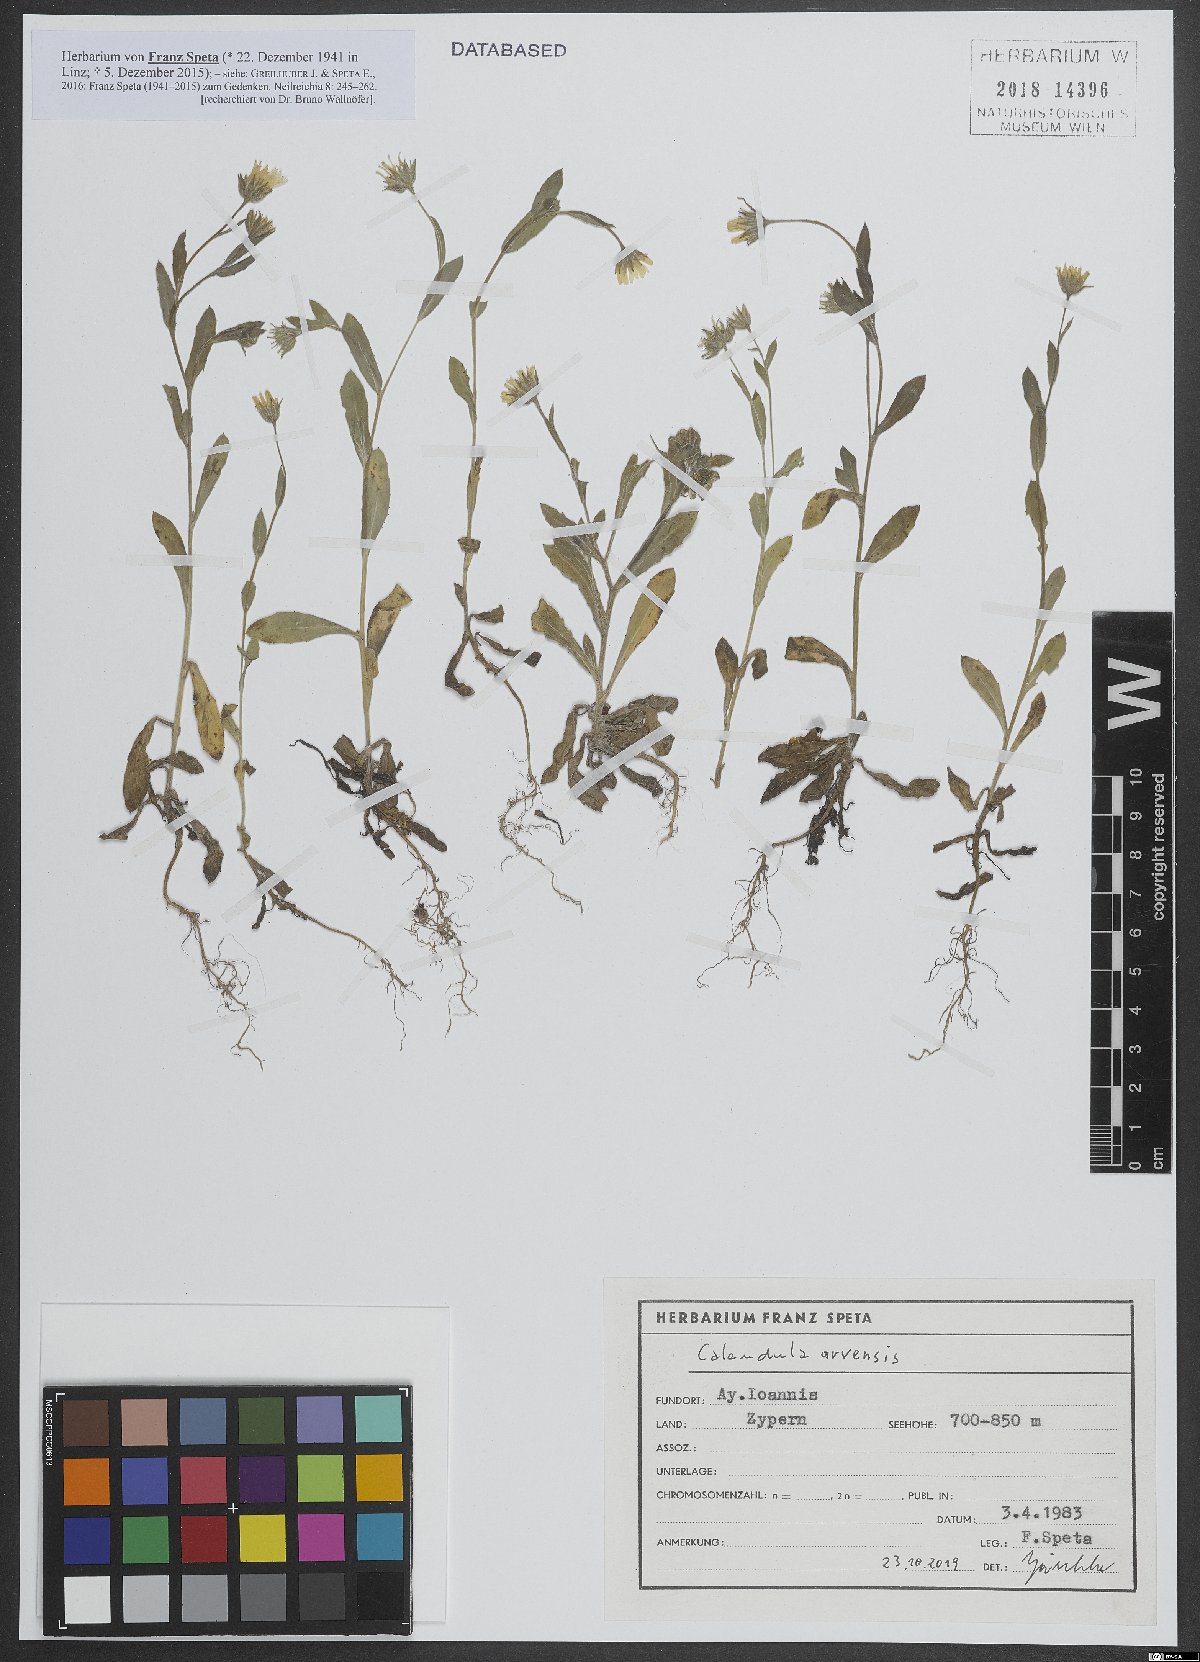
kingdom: Plantae
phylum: Tracheophyta
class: Magnoliopsida
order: Asterales
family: Asteraceae
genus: Calendula
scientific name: Calendula arvensis
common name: Field marigold
